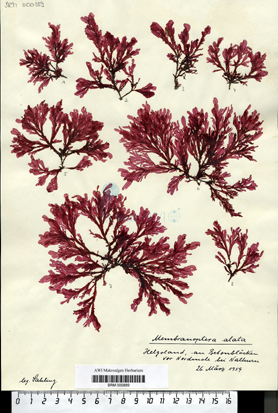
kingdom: Plantae
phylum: Rhodophyta
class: Florideophyceae
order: Ceramiales
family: Delesseriaceae
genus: Membranoptera
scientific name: Membranoptera alata
